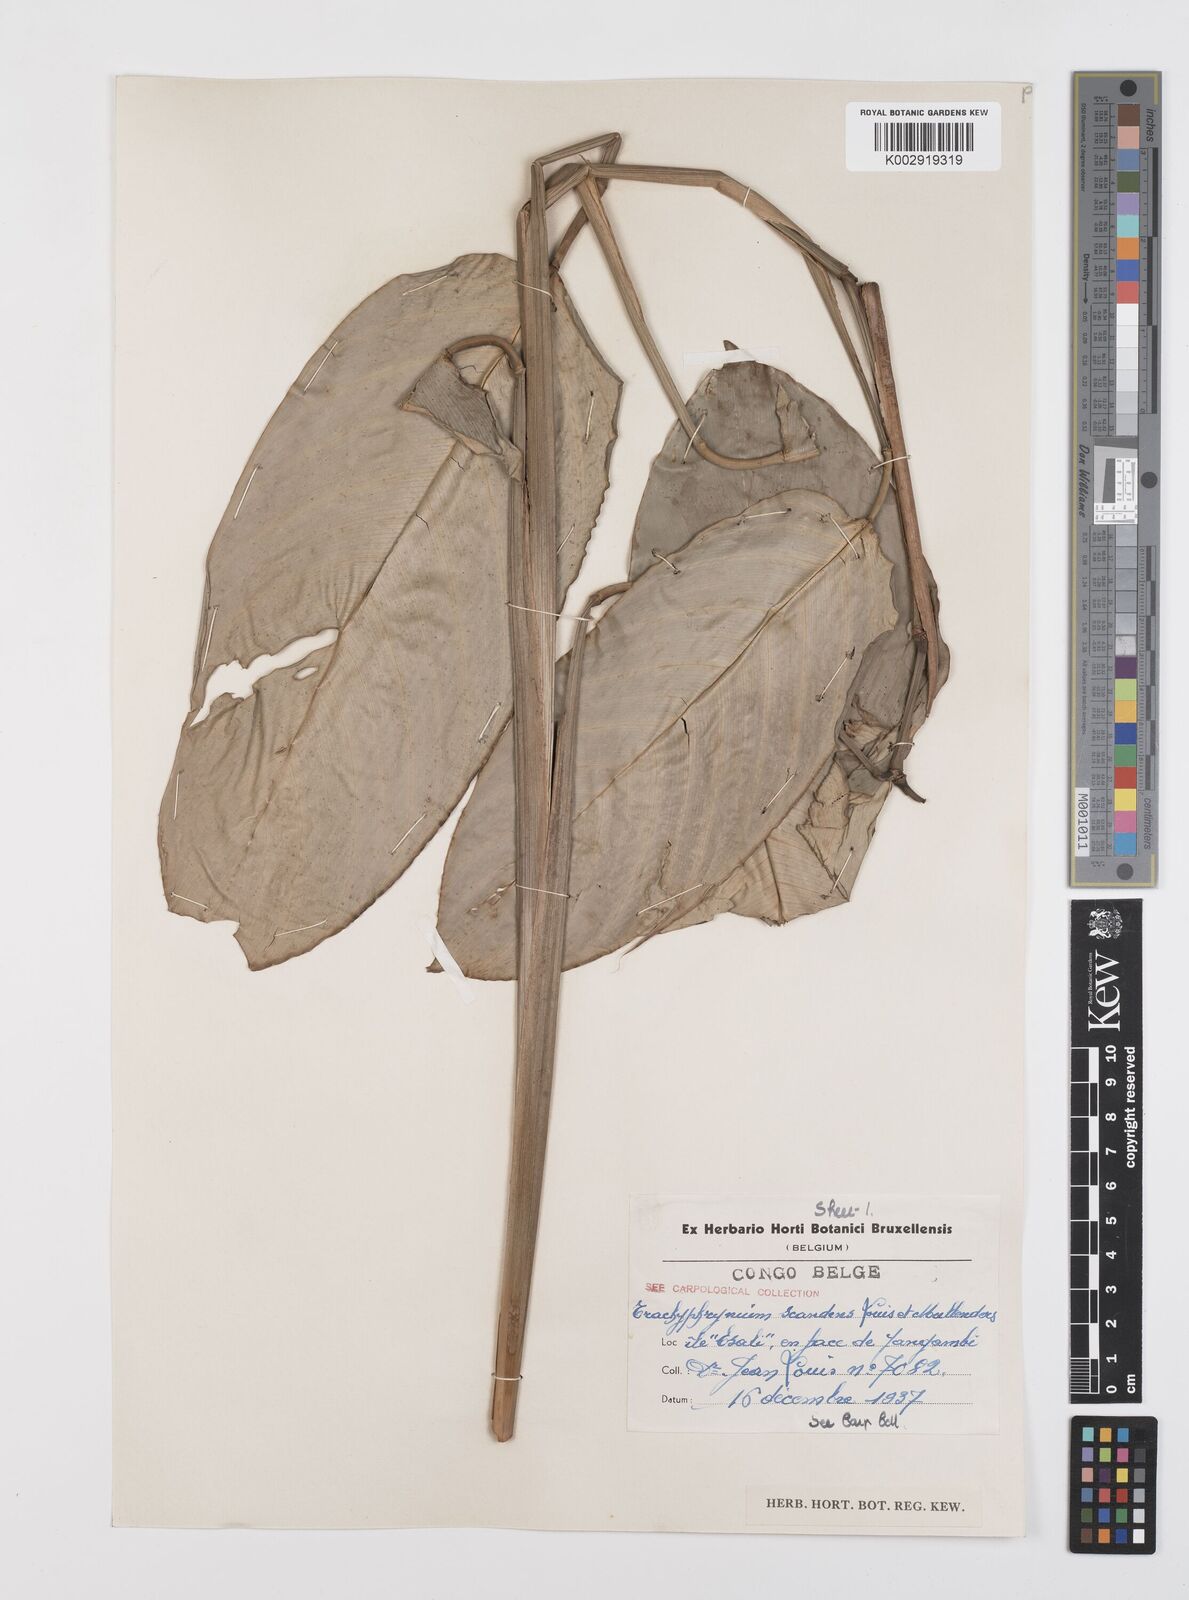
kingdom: Plantae
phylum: Tracheophyta
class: Liliopsida
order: Zingiberales
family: Marantaceae
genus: Hypselodelphys
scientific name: Hypselodelphys scandens
